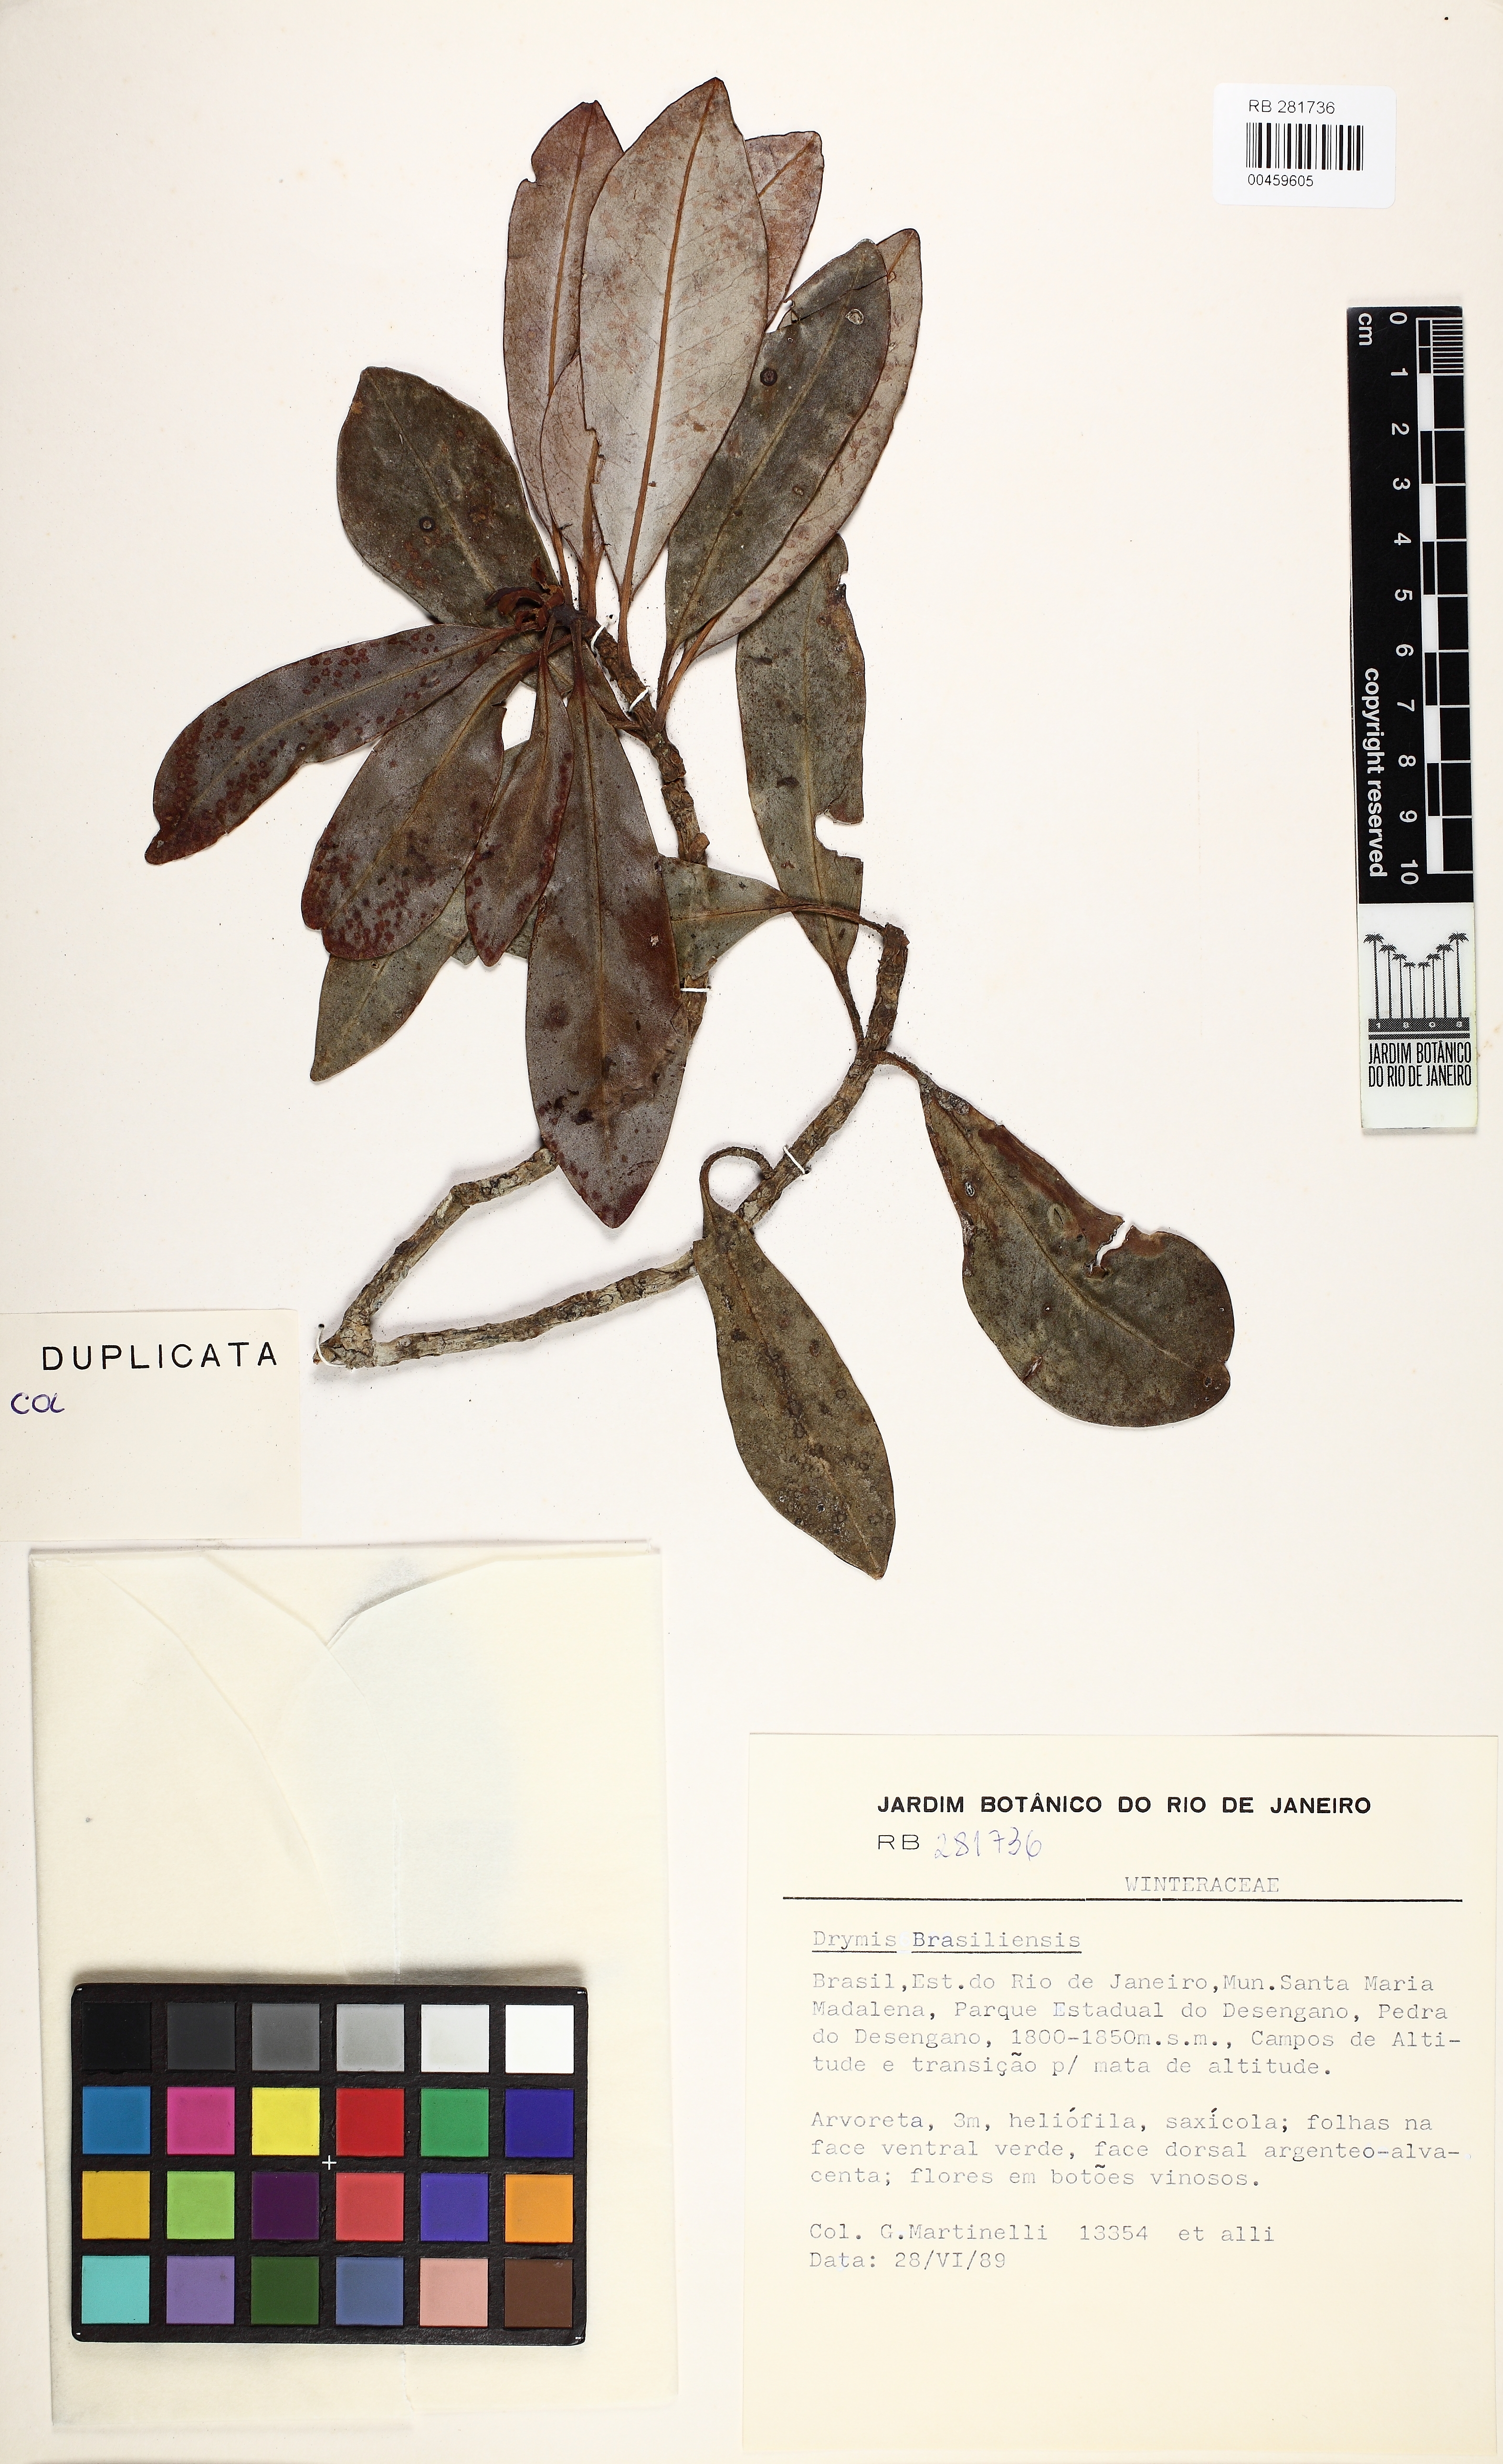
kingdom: Plantae
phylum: Tracheophyta
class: Magnoliopsida
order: Canellales
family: Winteraceae
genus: Drimys
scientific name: Drimys brasiliensis
